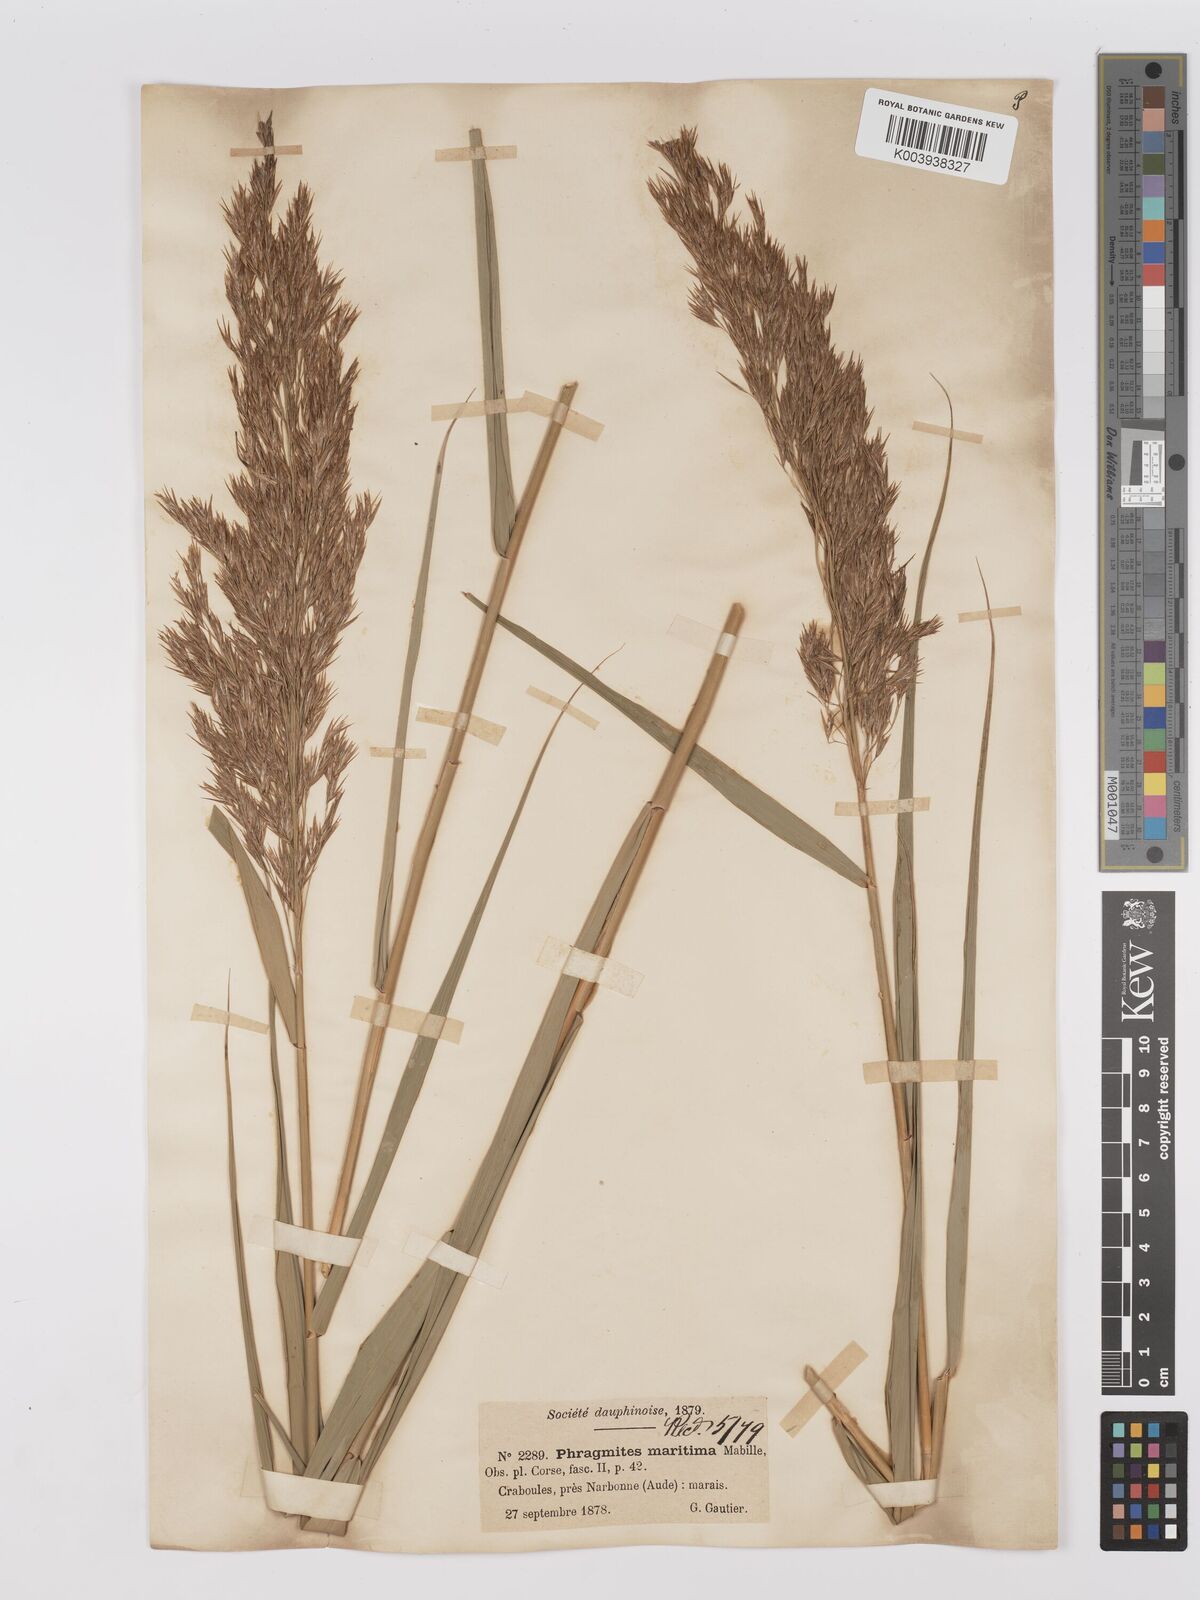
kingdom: Plantae
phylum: Tracheophyta
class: Liliopsida
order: Poales
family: Poaceae
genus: Phragmites
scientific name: Phragmites australis
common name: Common reed
